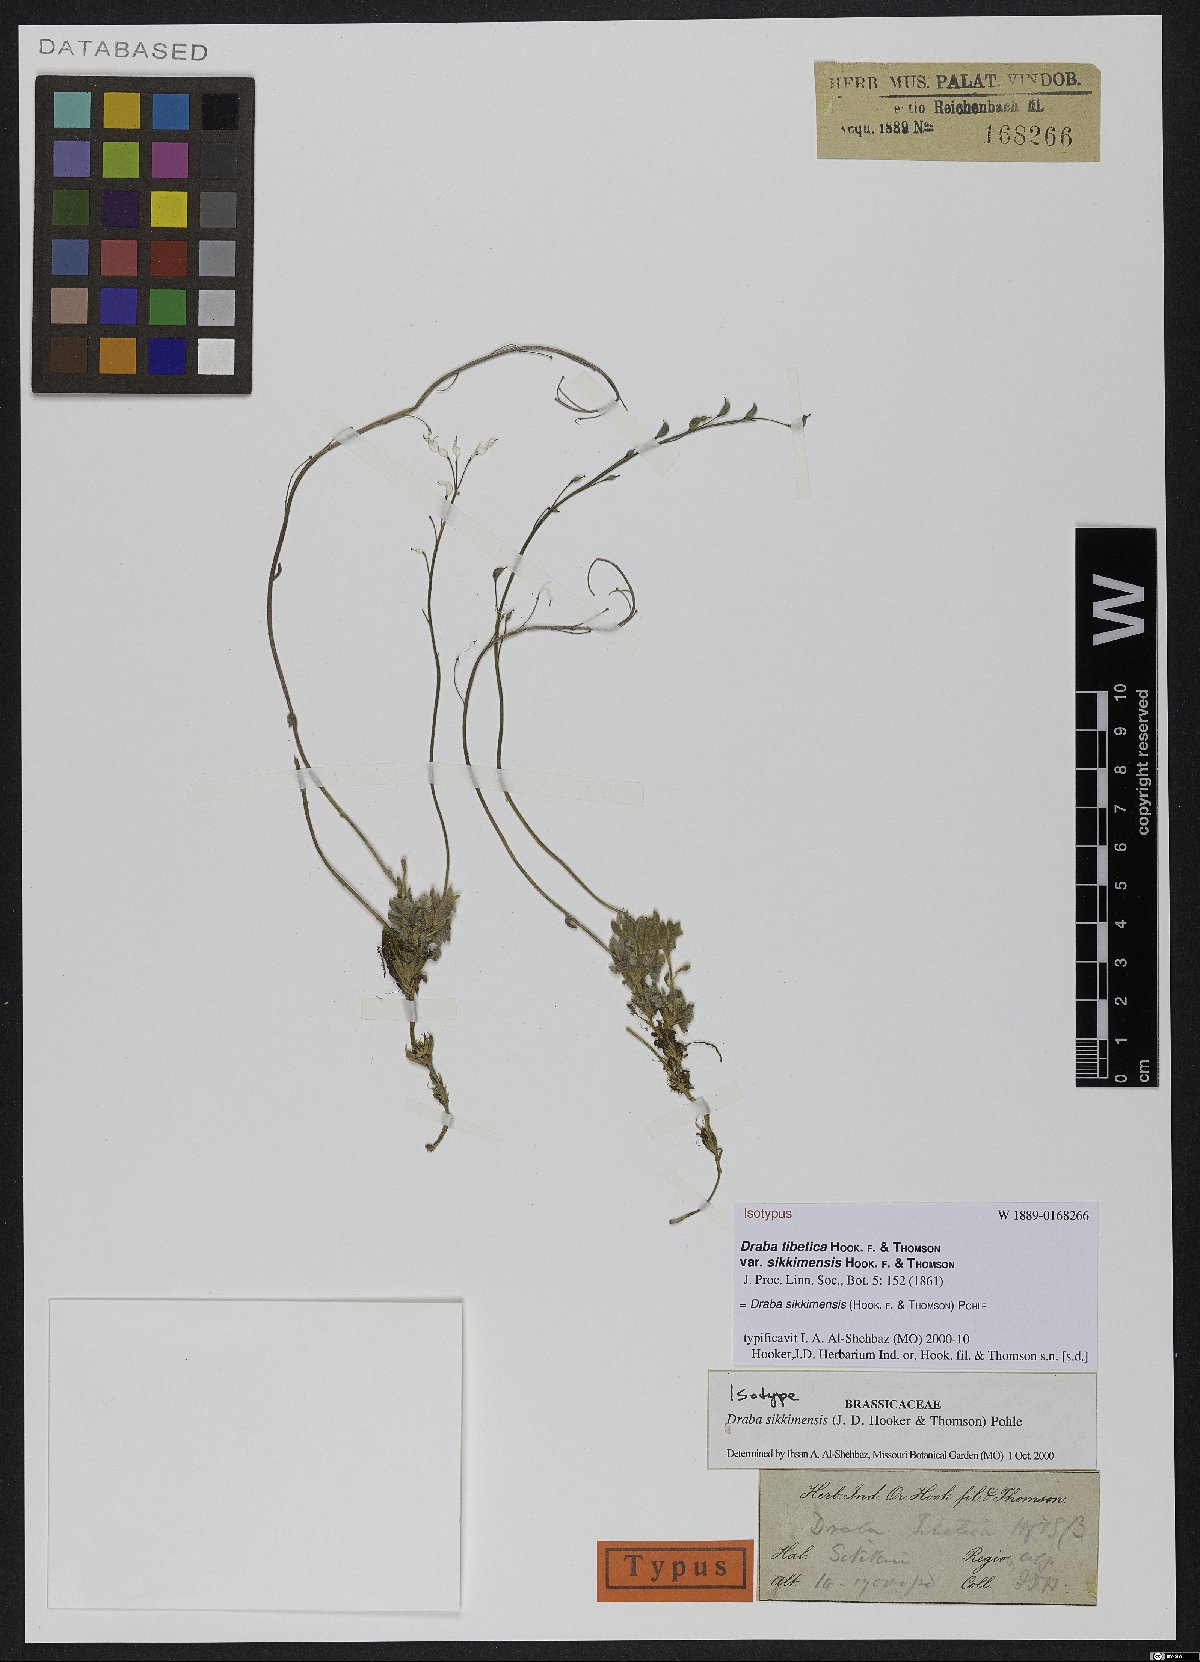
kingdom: Plantae
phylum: Tracheophyta
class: Magnoliopsida
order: Brassicales
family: Brassicaceae
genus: Draba
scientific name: Draba sikkimensis
